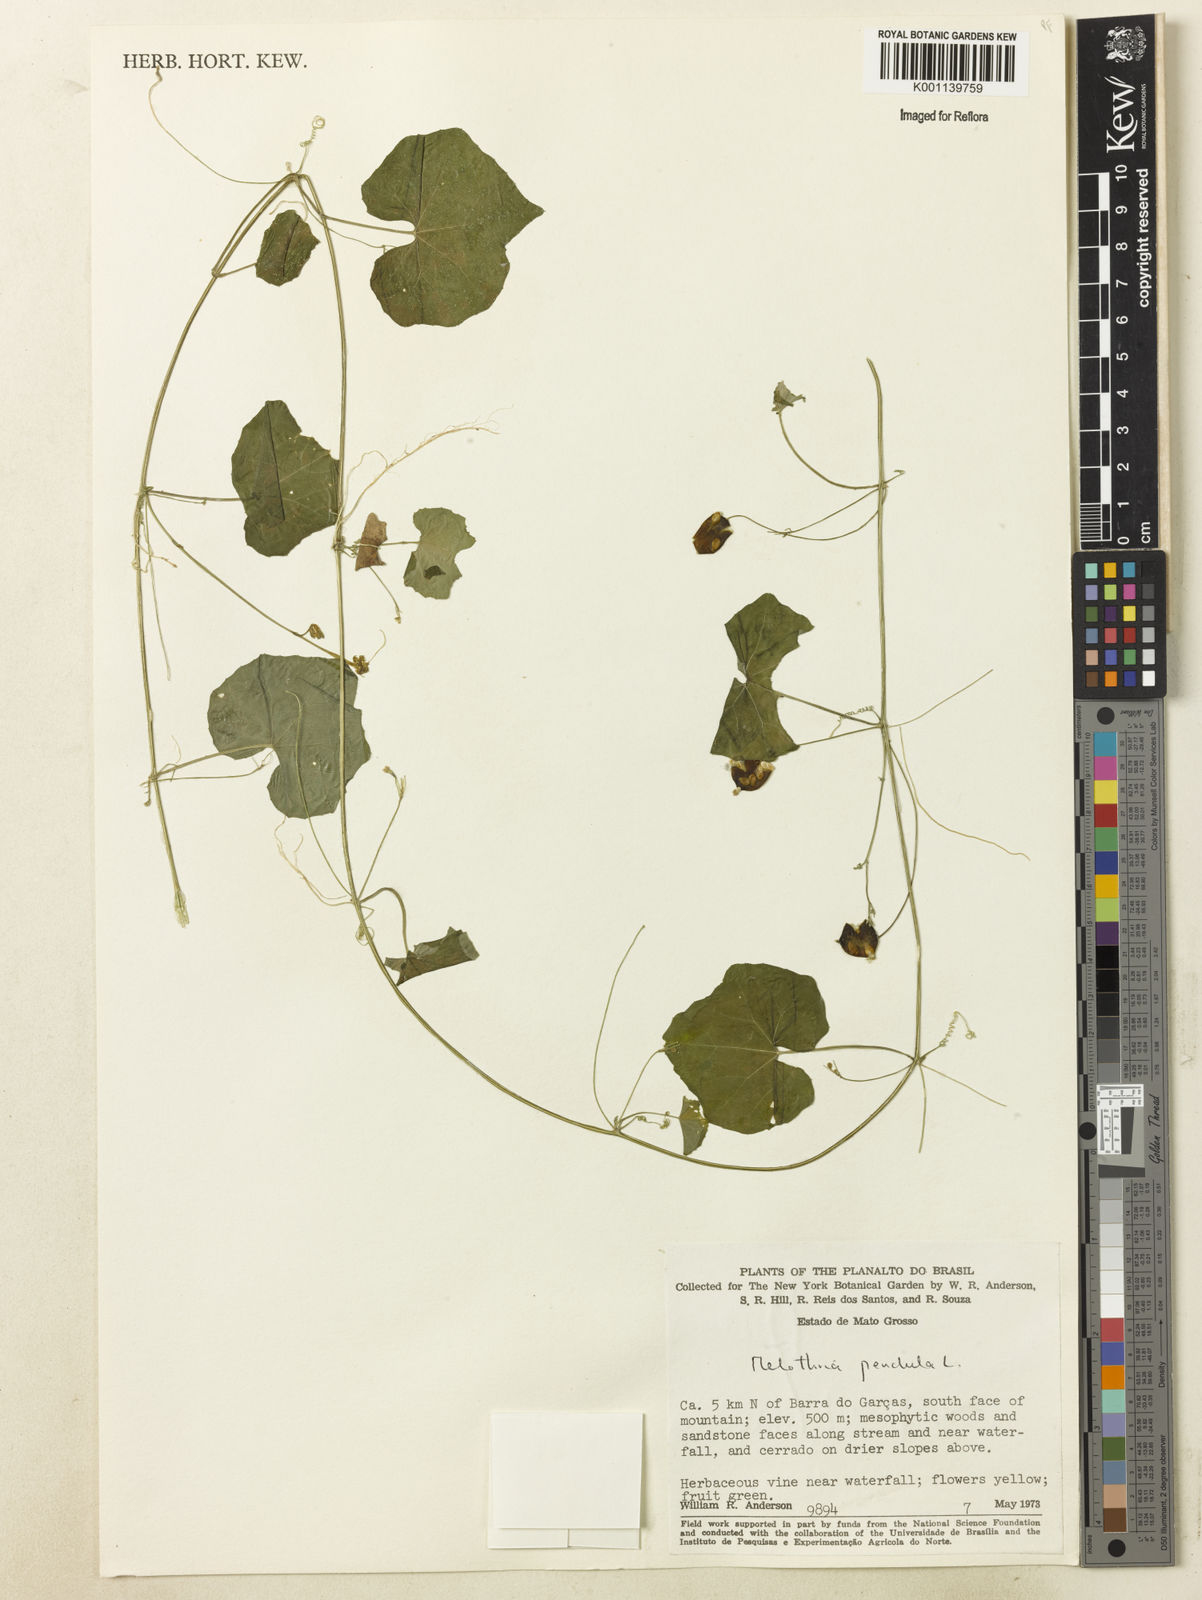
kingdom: Plantae
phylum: Tracheophyta
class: Magnoliopsida
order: Cucurbitales
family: Cucurbitaceae
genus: Melothria
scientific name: Melothria pendula
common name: Creeping-cucumber
